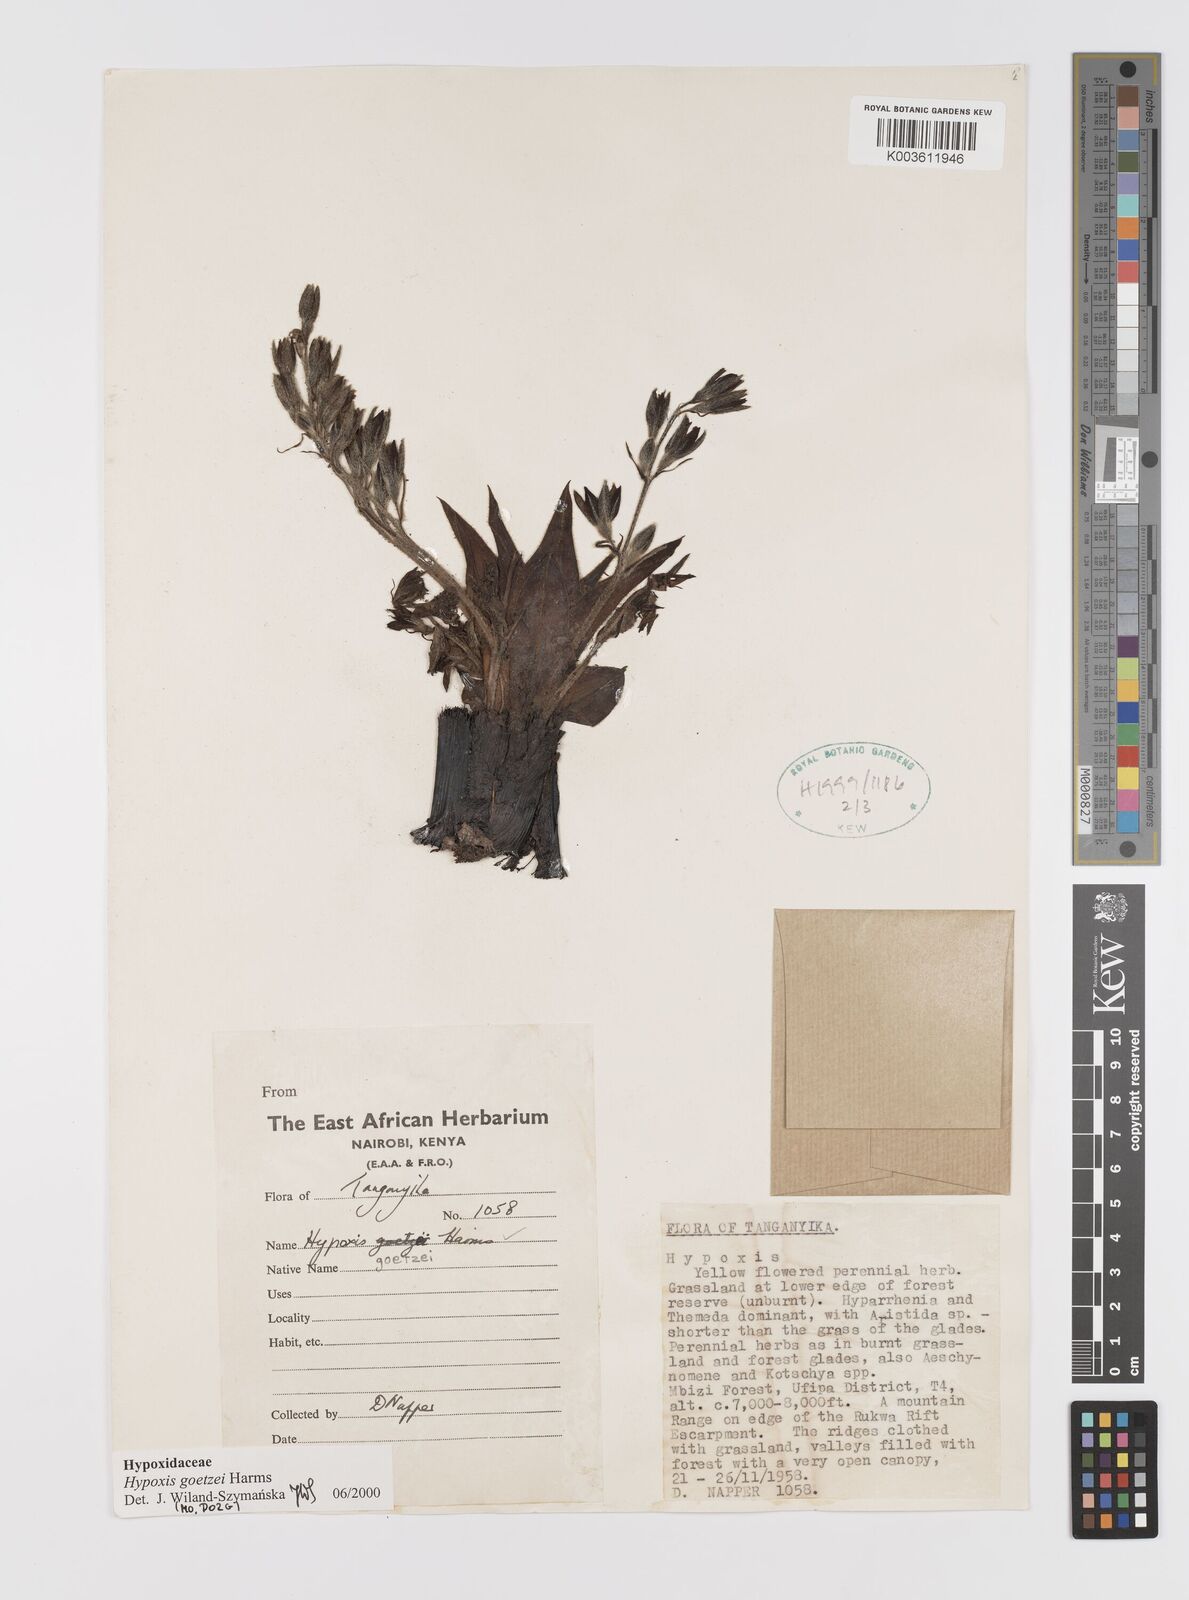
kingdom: Plantae
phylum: Tracheophyta
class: Liliopsida
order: Asparagales
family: Hypoxidaceae
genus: Hypoxis
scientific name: Hypoxis goetzei
